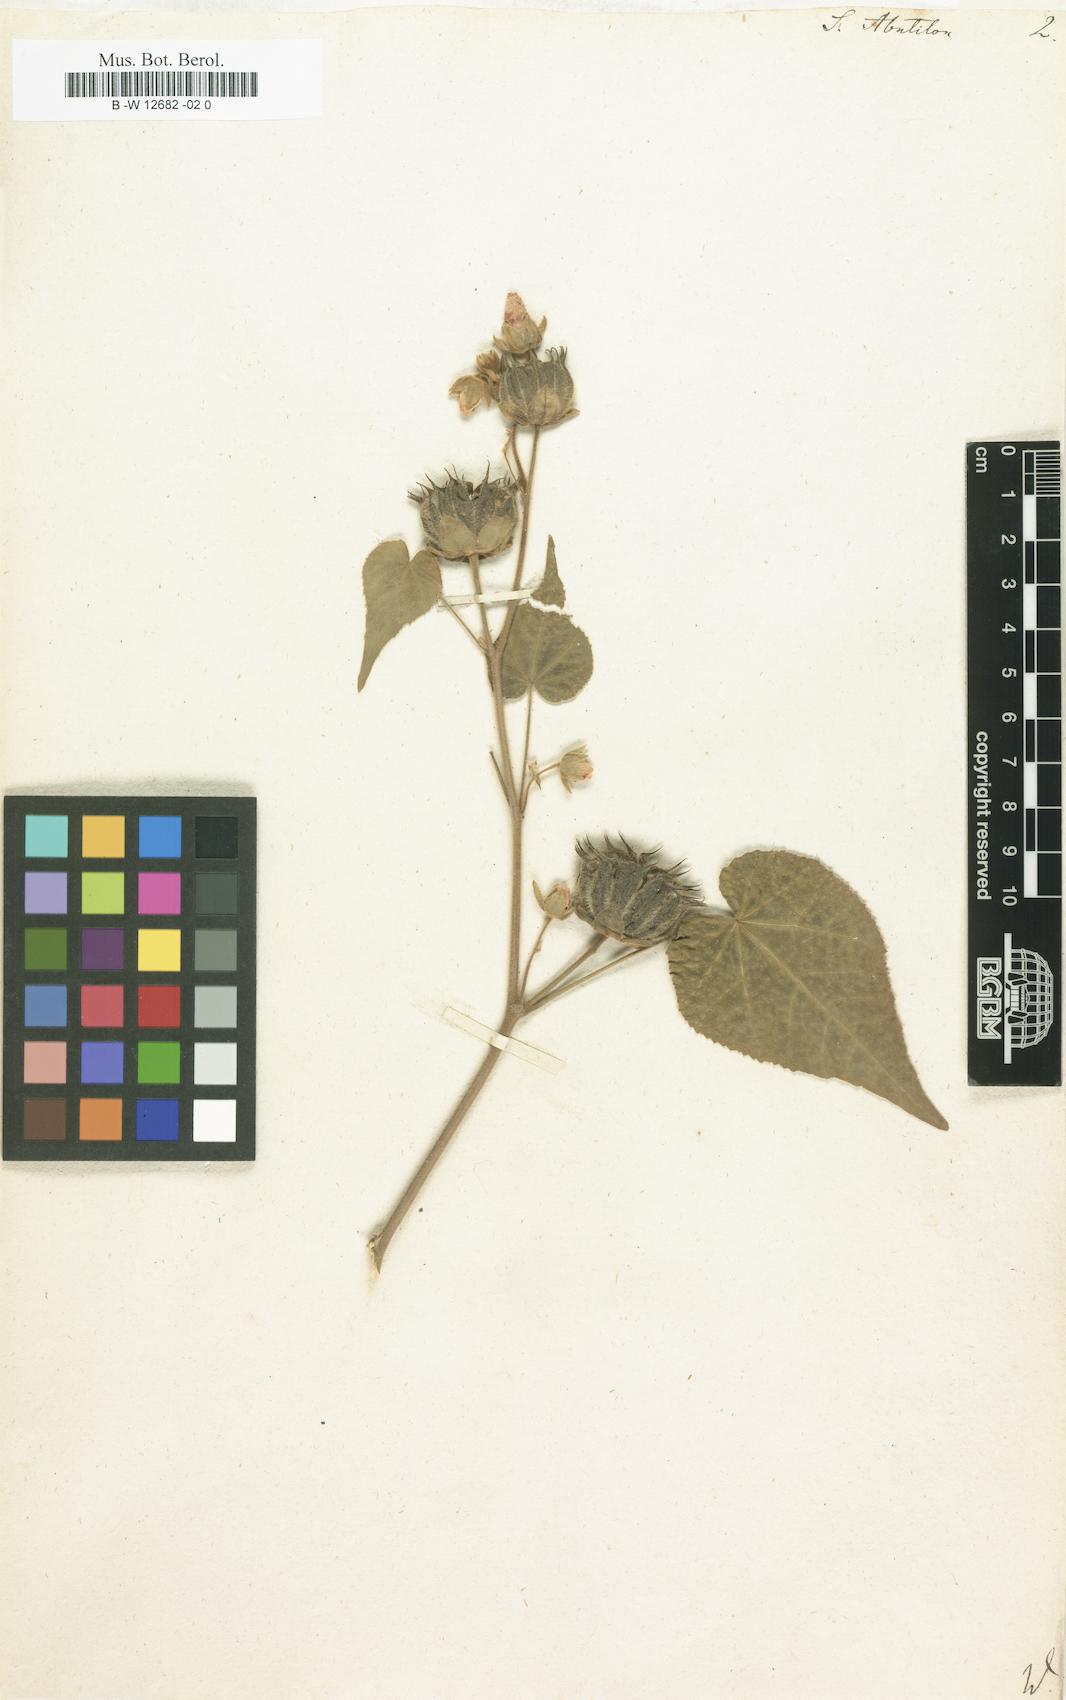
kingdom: Plantae
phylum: Tracheophyta
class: Magnoliopsida
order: Malvales
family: Malvaceae
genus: Abutilon
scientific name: Abutilon theophrasti
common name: Velvetleaf
